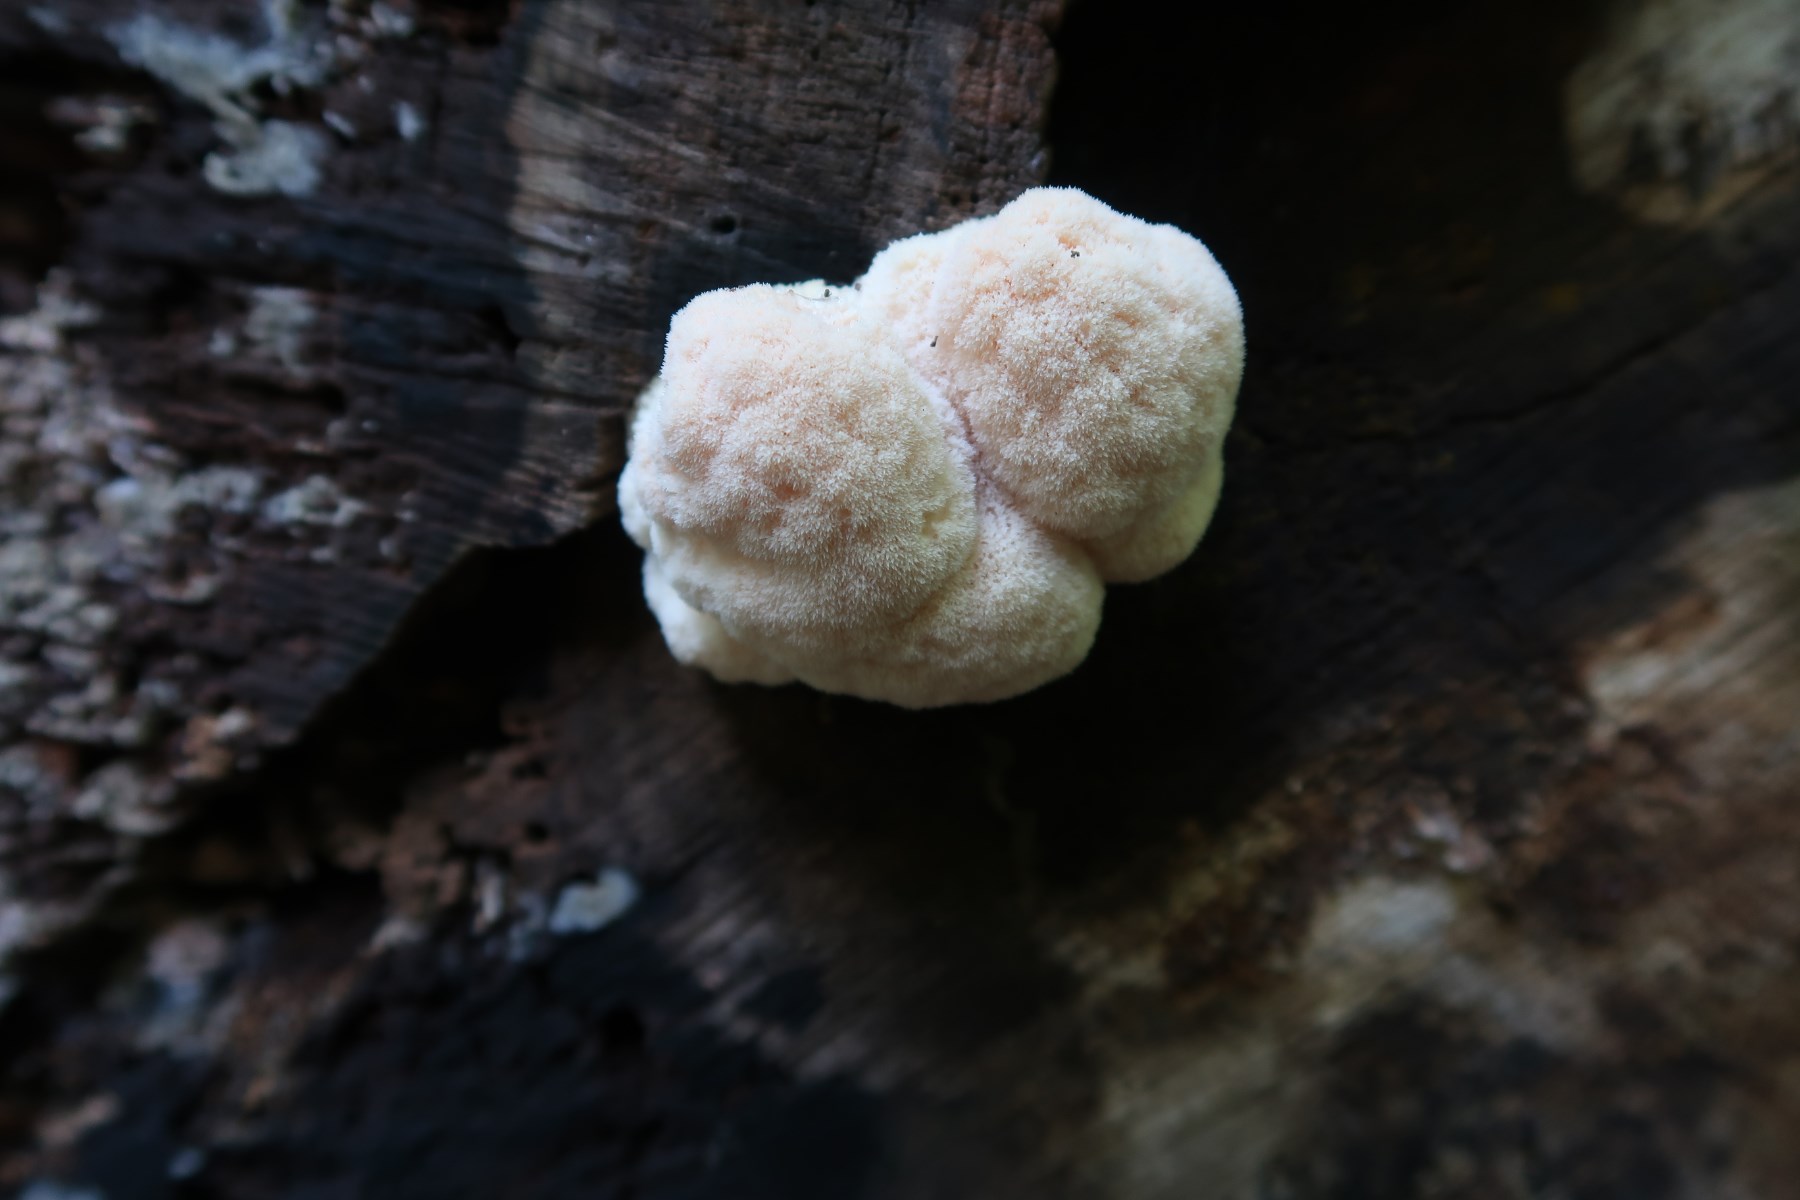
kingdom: Fungi
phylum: Basidiomycota
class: Agaricomycetes
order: Russulales
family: Hericiaceae
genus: Hericium
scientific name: Hericium erinaceus
